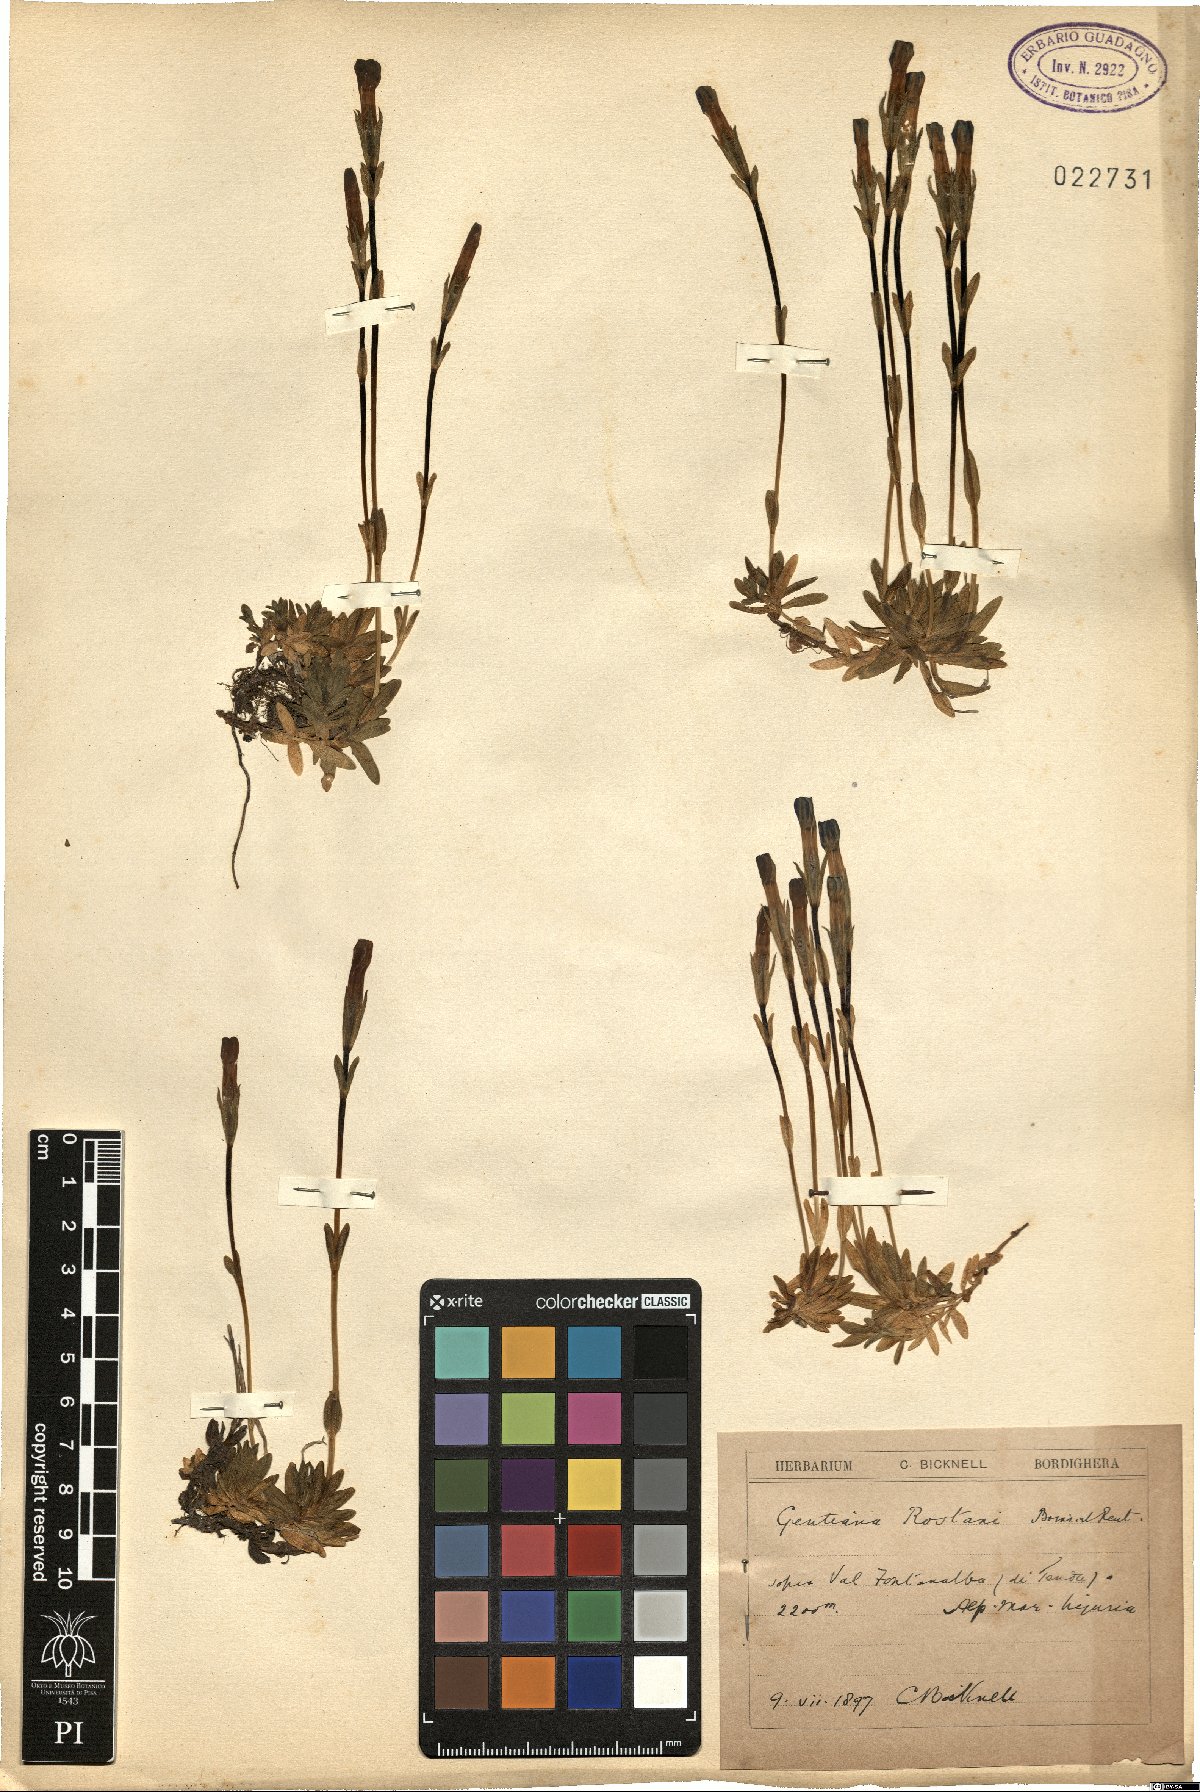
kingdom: Plantae
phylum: Tracheophyta
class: Magnoliopsida
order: Gentianales
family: Gentianaceae
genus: Gentiana
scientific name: Gentiana rostanii
